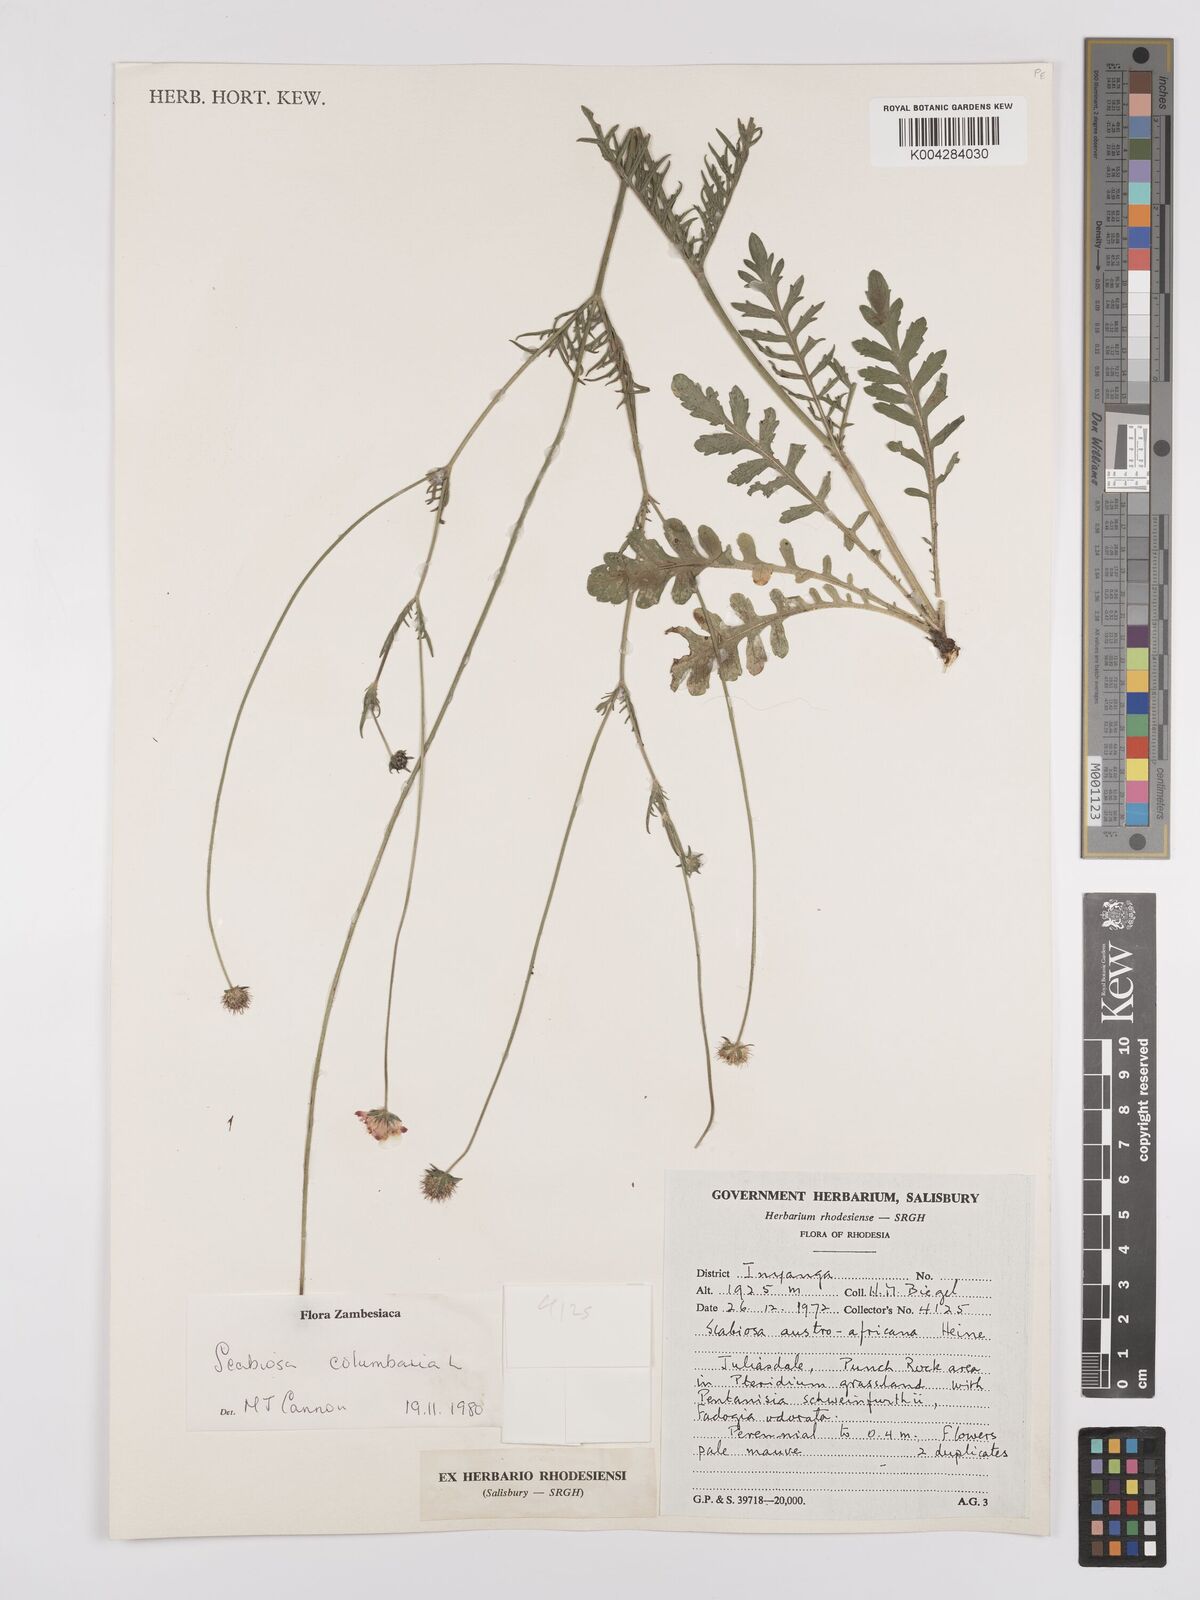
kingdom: Plantae
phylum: Tracheophyta
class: Magnoliopsida
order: Dipsacales
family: Caprifoliaceae
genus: Scabiosa
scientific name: Scabiosa austroafricana
